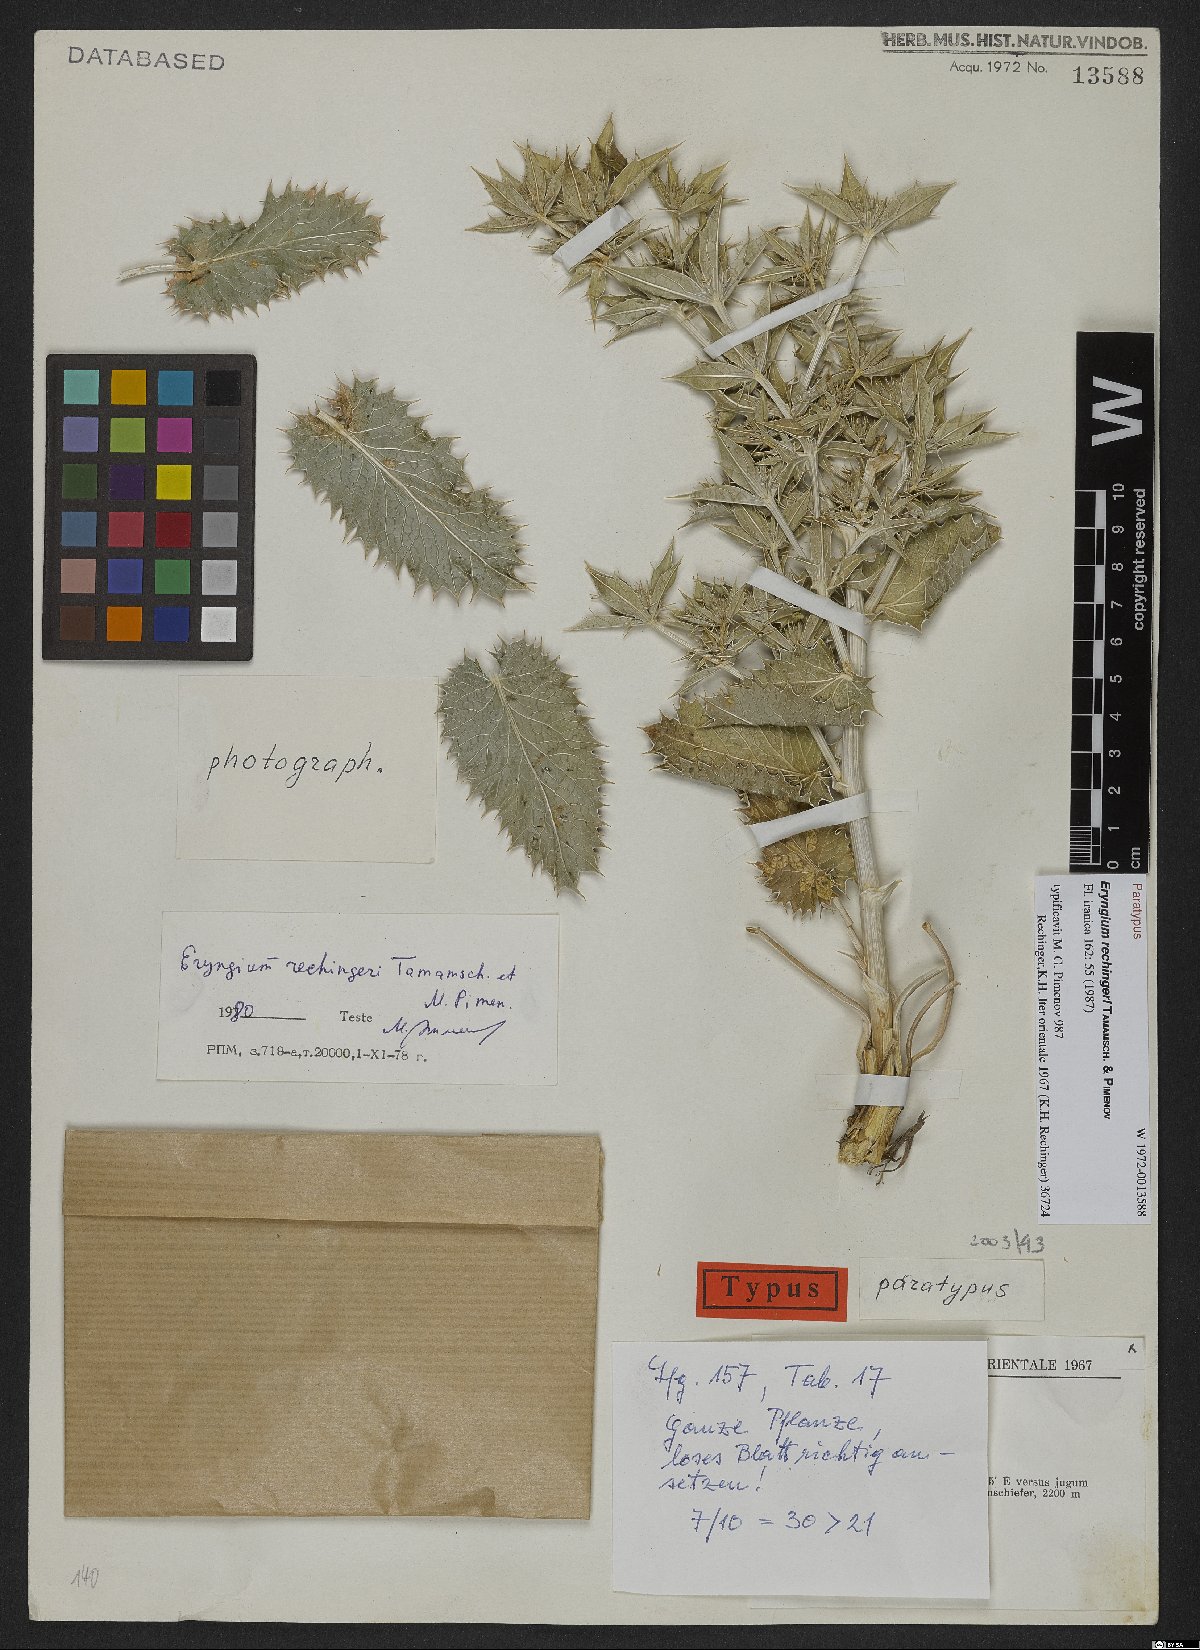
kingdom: Plantae
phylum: Tracheophyta
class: Magnoliopsida
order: Apiales
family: Apiaceae
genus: Eryngium
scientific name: Eryngium carlinoides
